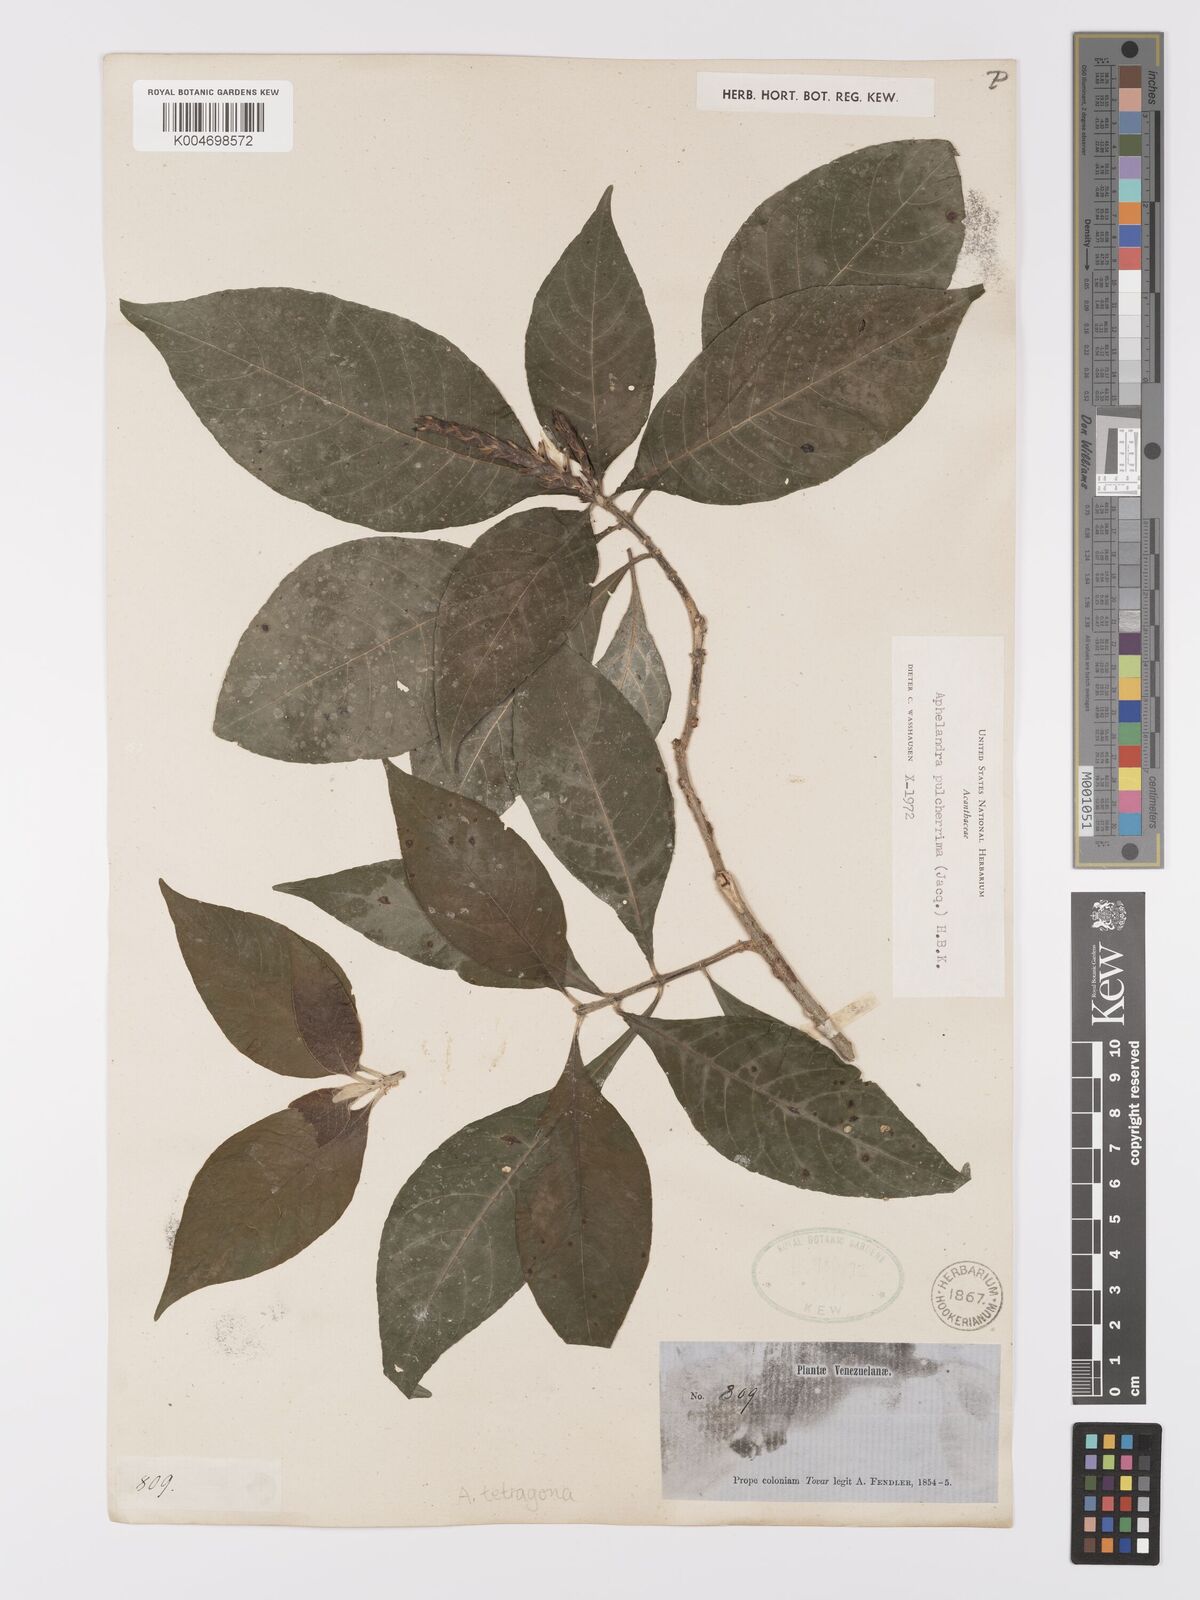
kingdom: Plantae
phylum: Tracheophyta
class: Magnoliopsida
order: Lamiales
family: Acanthaceae
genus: Aphelandra
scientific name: Aphelandra glabrata
